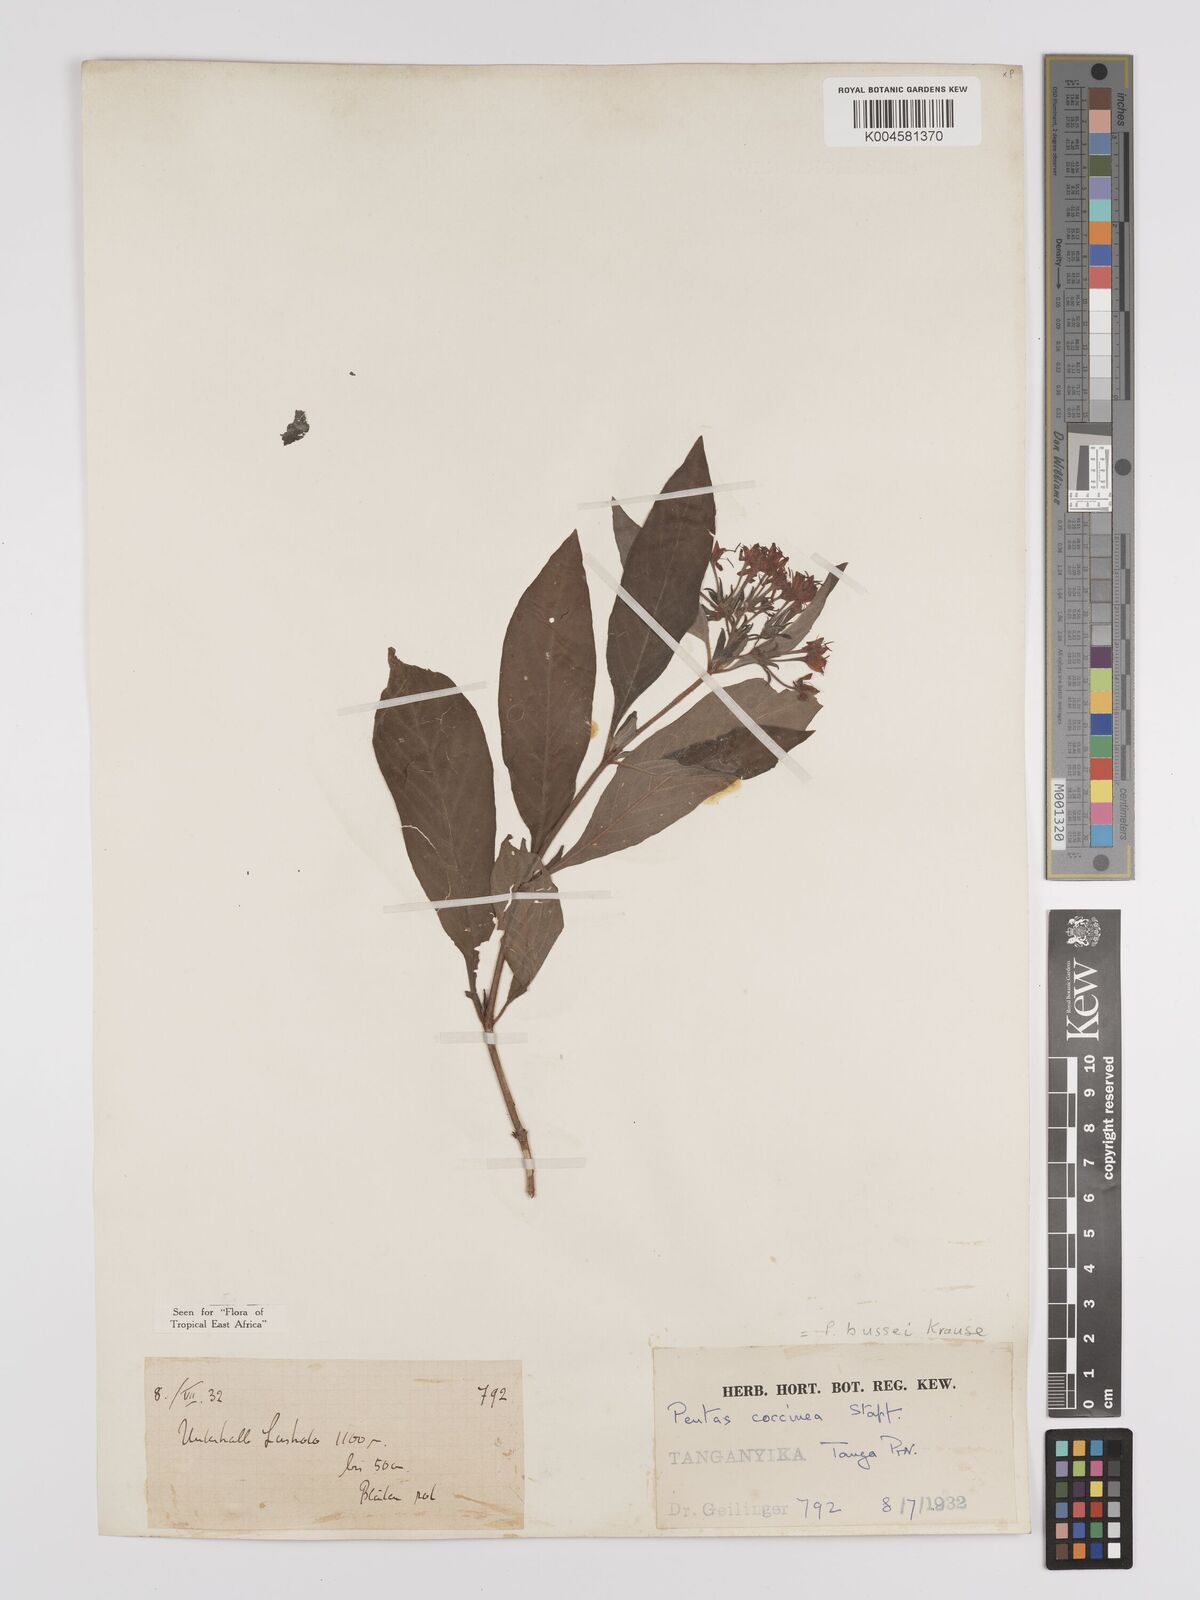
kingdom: Plantae
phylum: Tracheophyta
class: Magnoliopsida
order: Gentianales
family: Rubiaceae
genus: Rhodopentas
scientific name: Rhodopentas bussei
